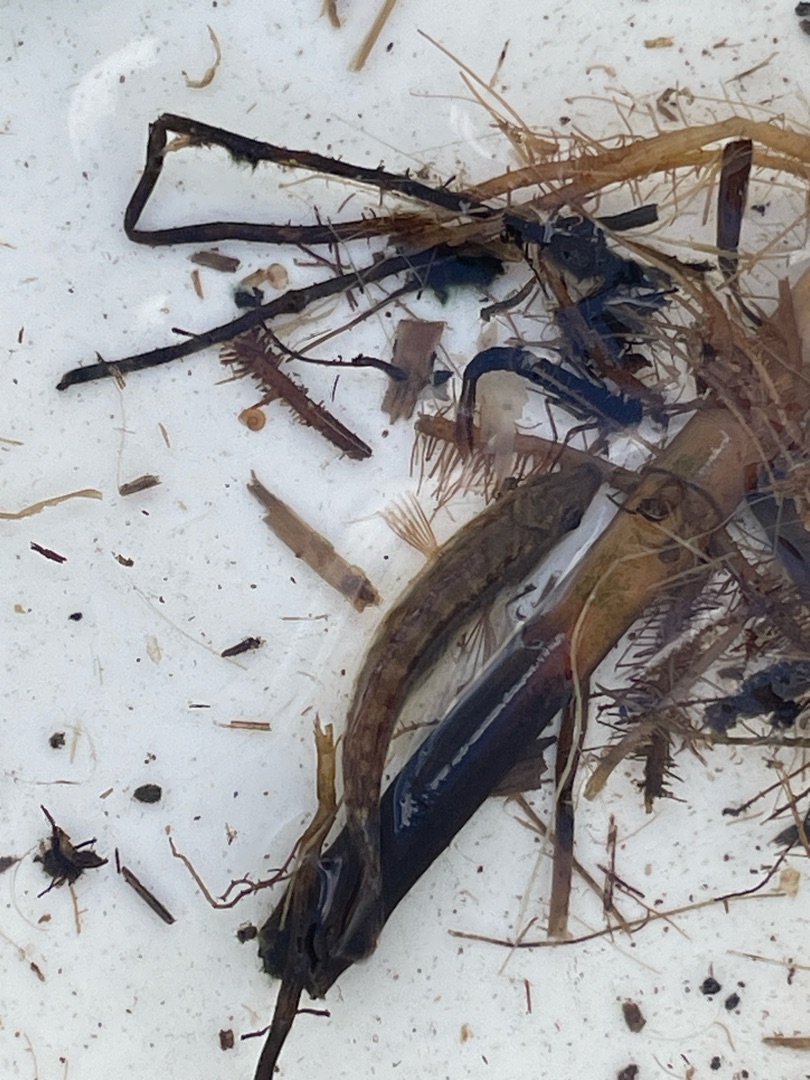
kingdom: Animalia
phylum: Chordata
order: Gasterosteiformes
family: Gasterosteidae
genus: Pungitius
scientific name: Pungitius pungitius
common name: Nipigget hundestejle
